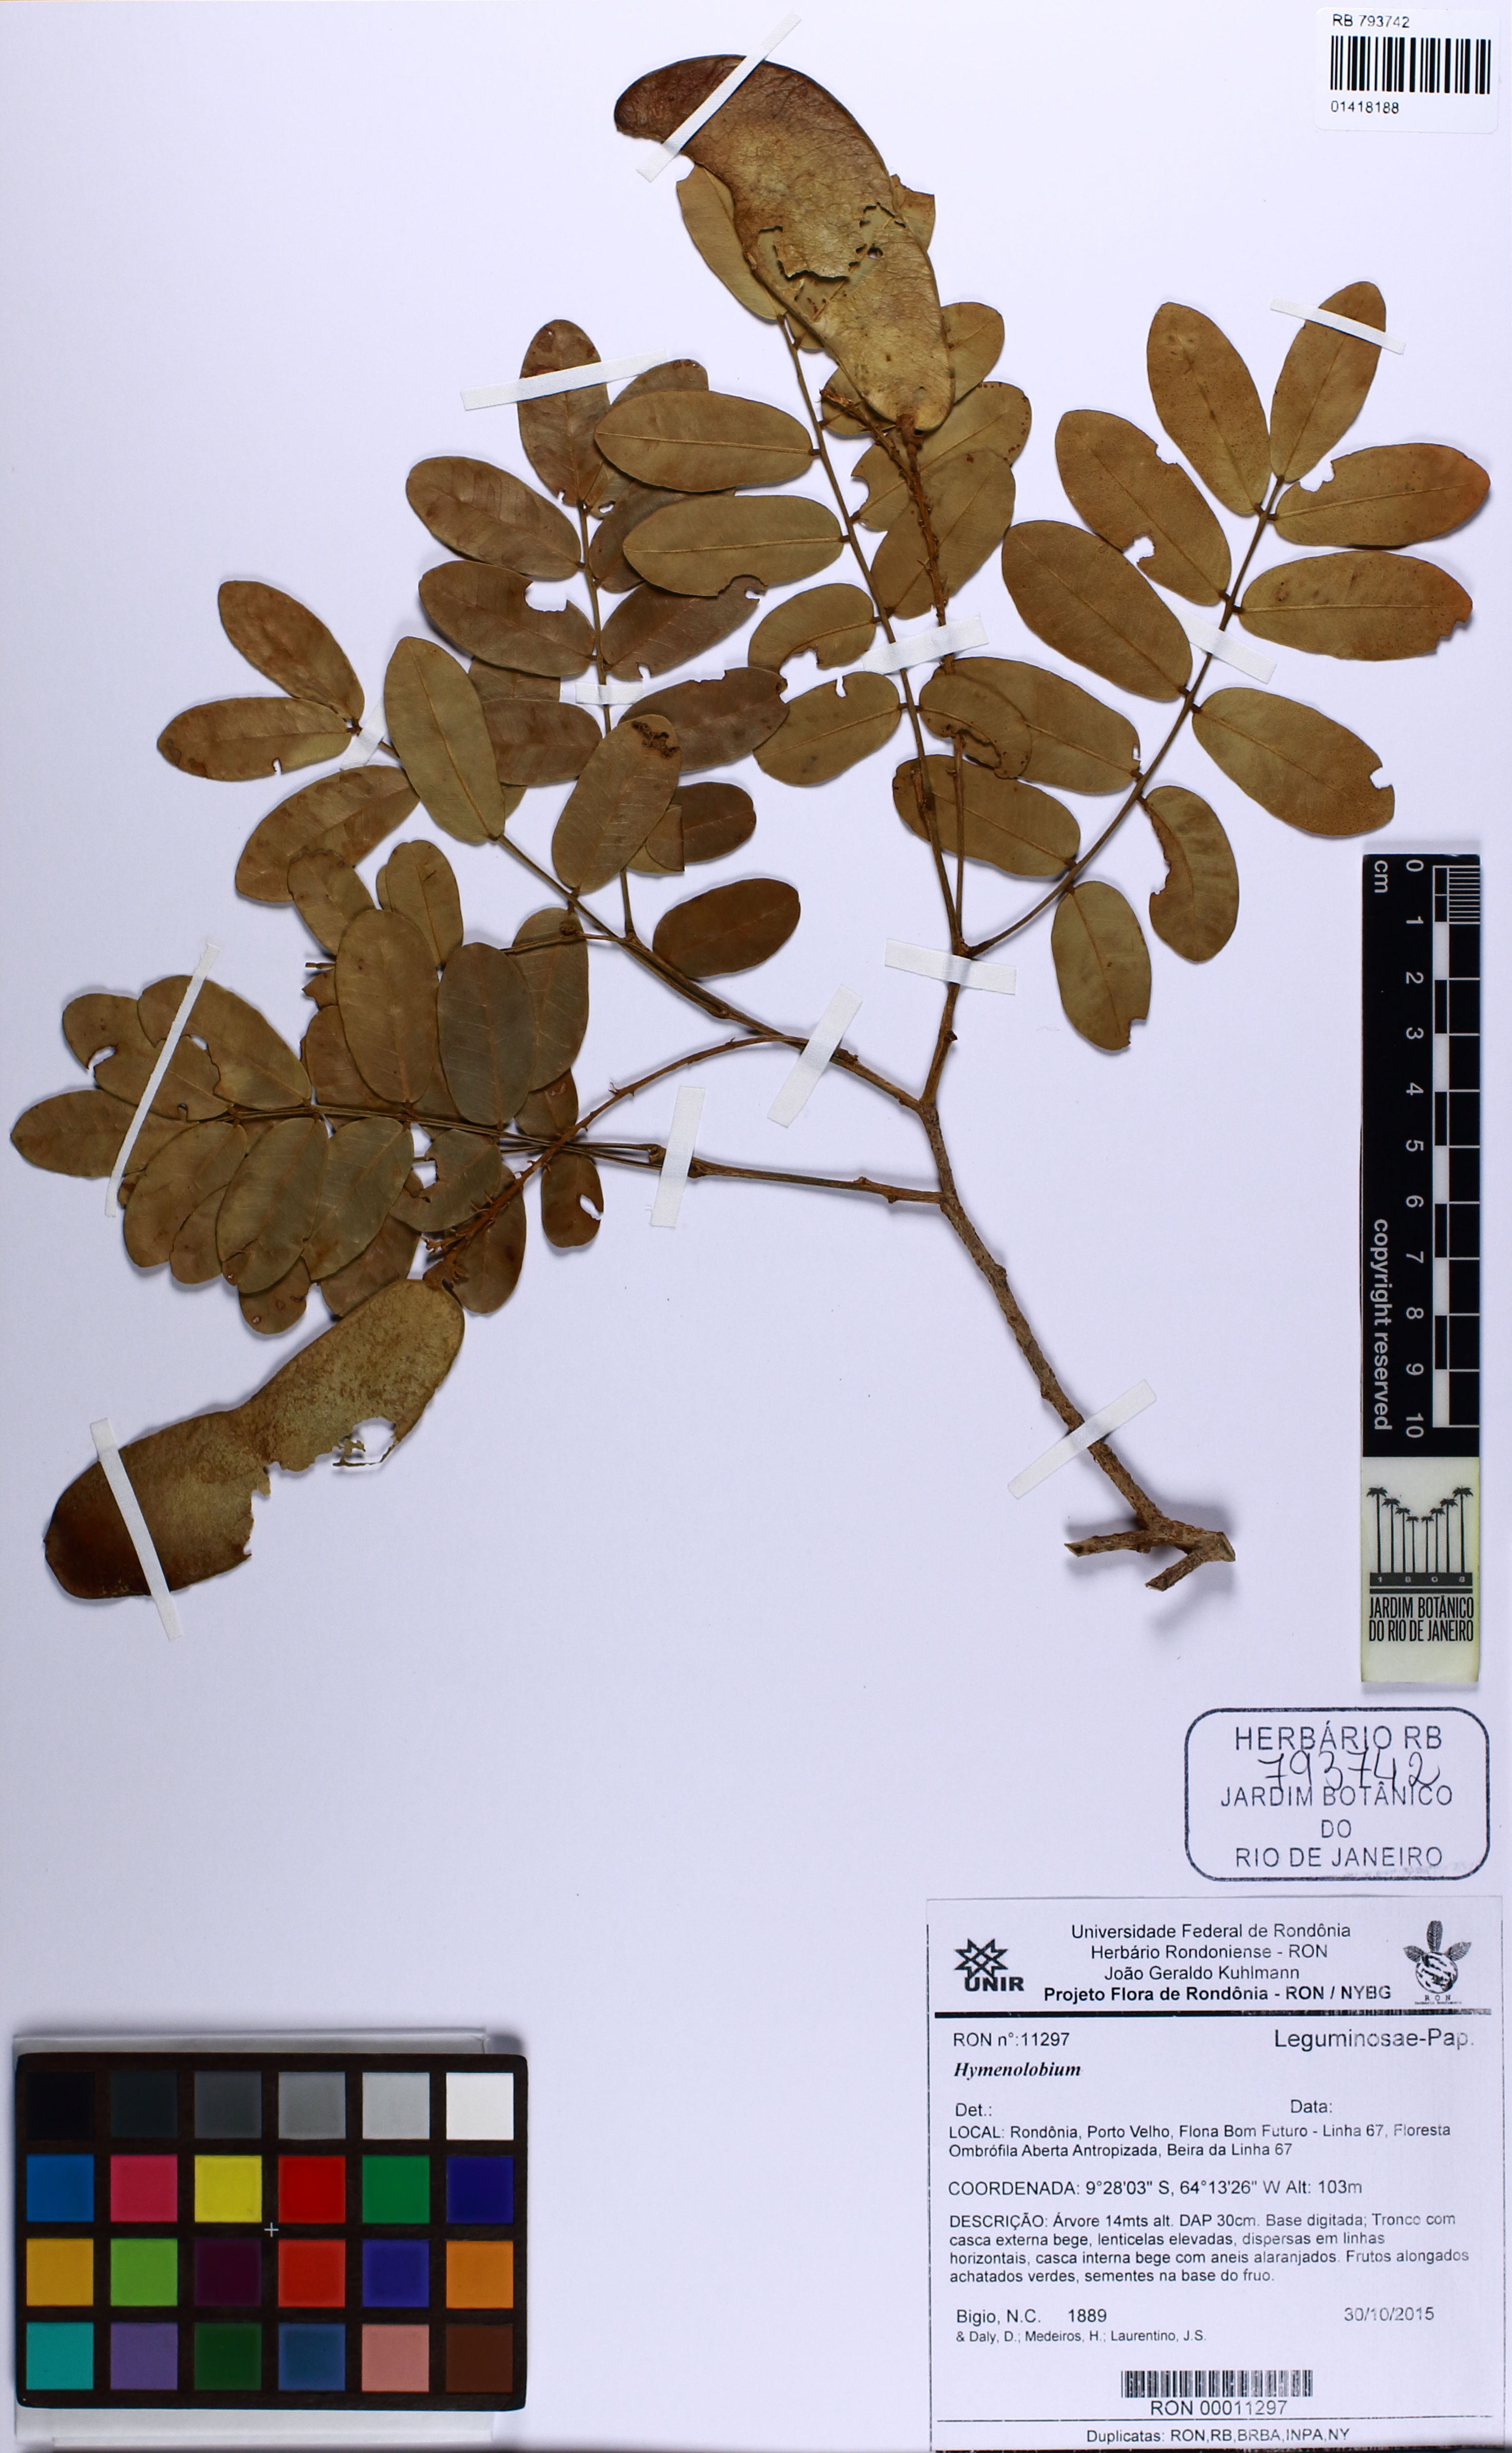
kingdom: Plantae
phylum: Tracheophyta
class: Magnoliopsida
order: Fabales
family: Fabaceae
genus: Hymenolobium
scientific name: Hymenolobium
